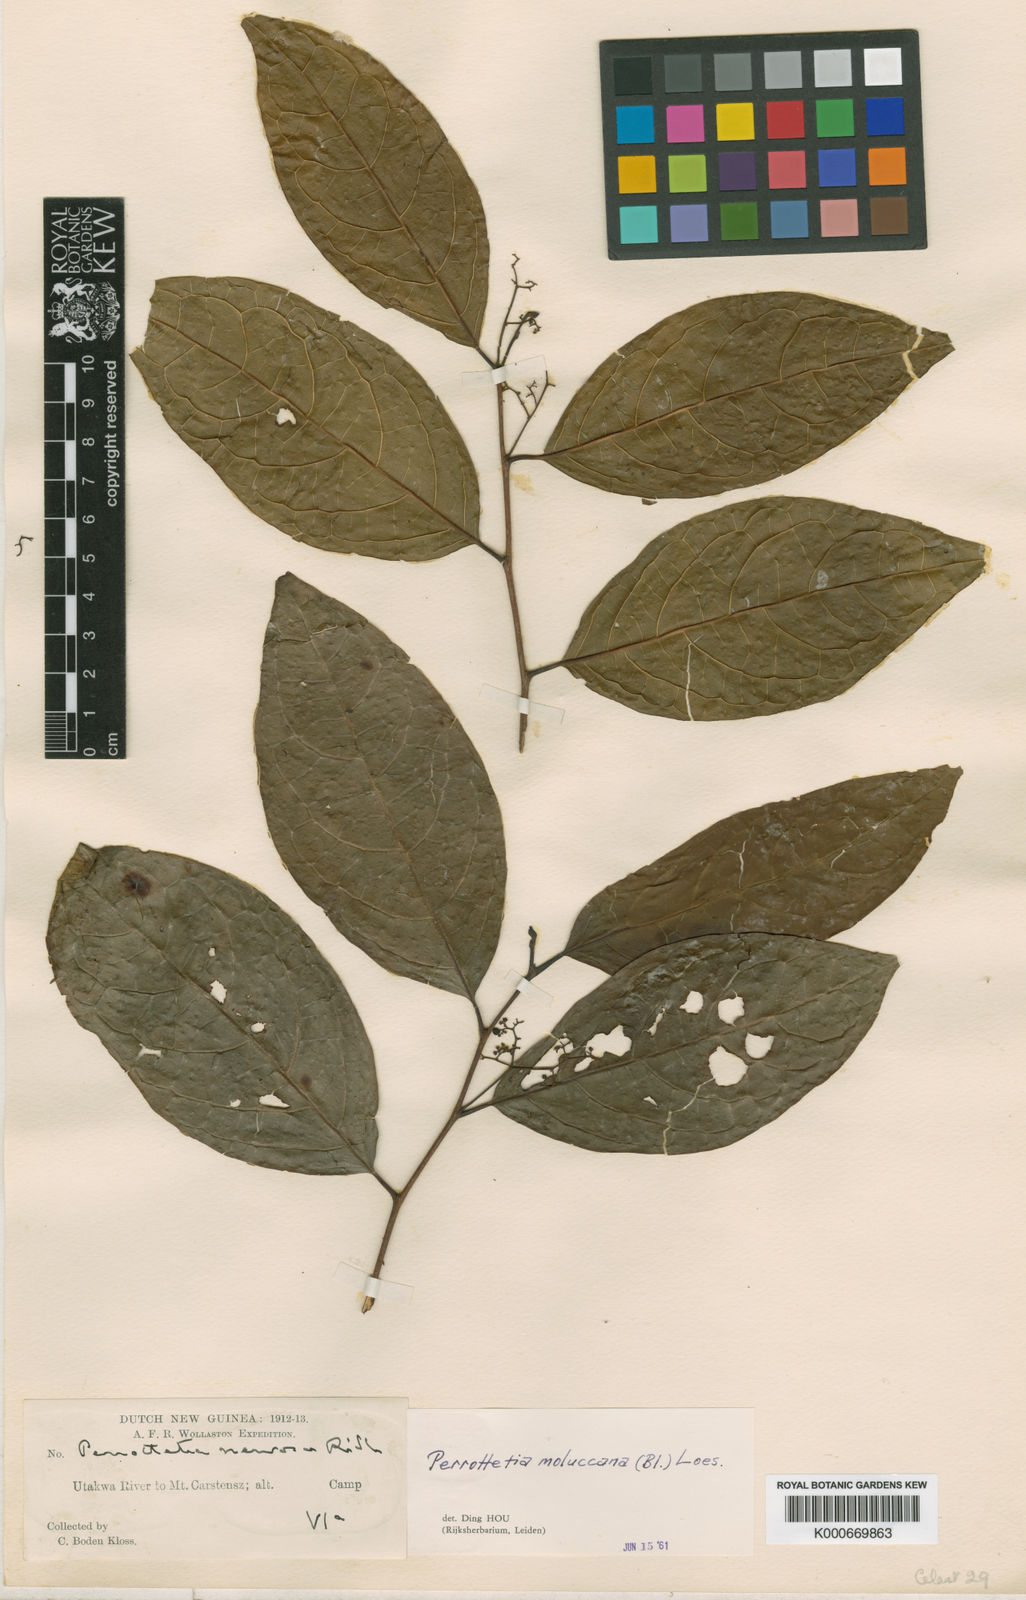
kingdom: Plantae
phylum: Tracheophyta
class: Magnoliopsida
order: Huerteales
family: Dipentodontaceae
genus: Perrottetia
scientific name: Perrottetia alpestris
